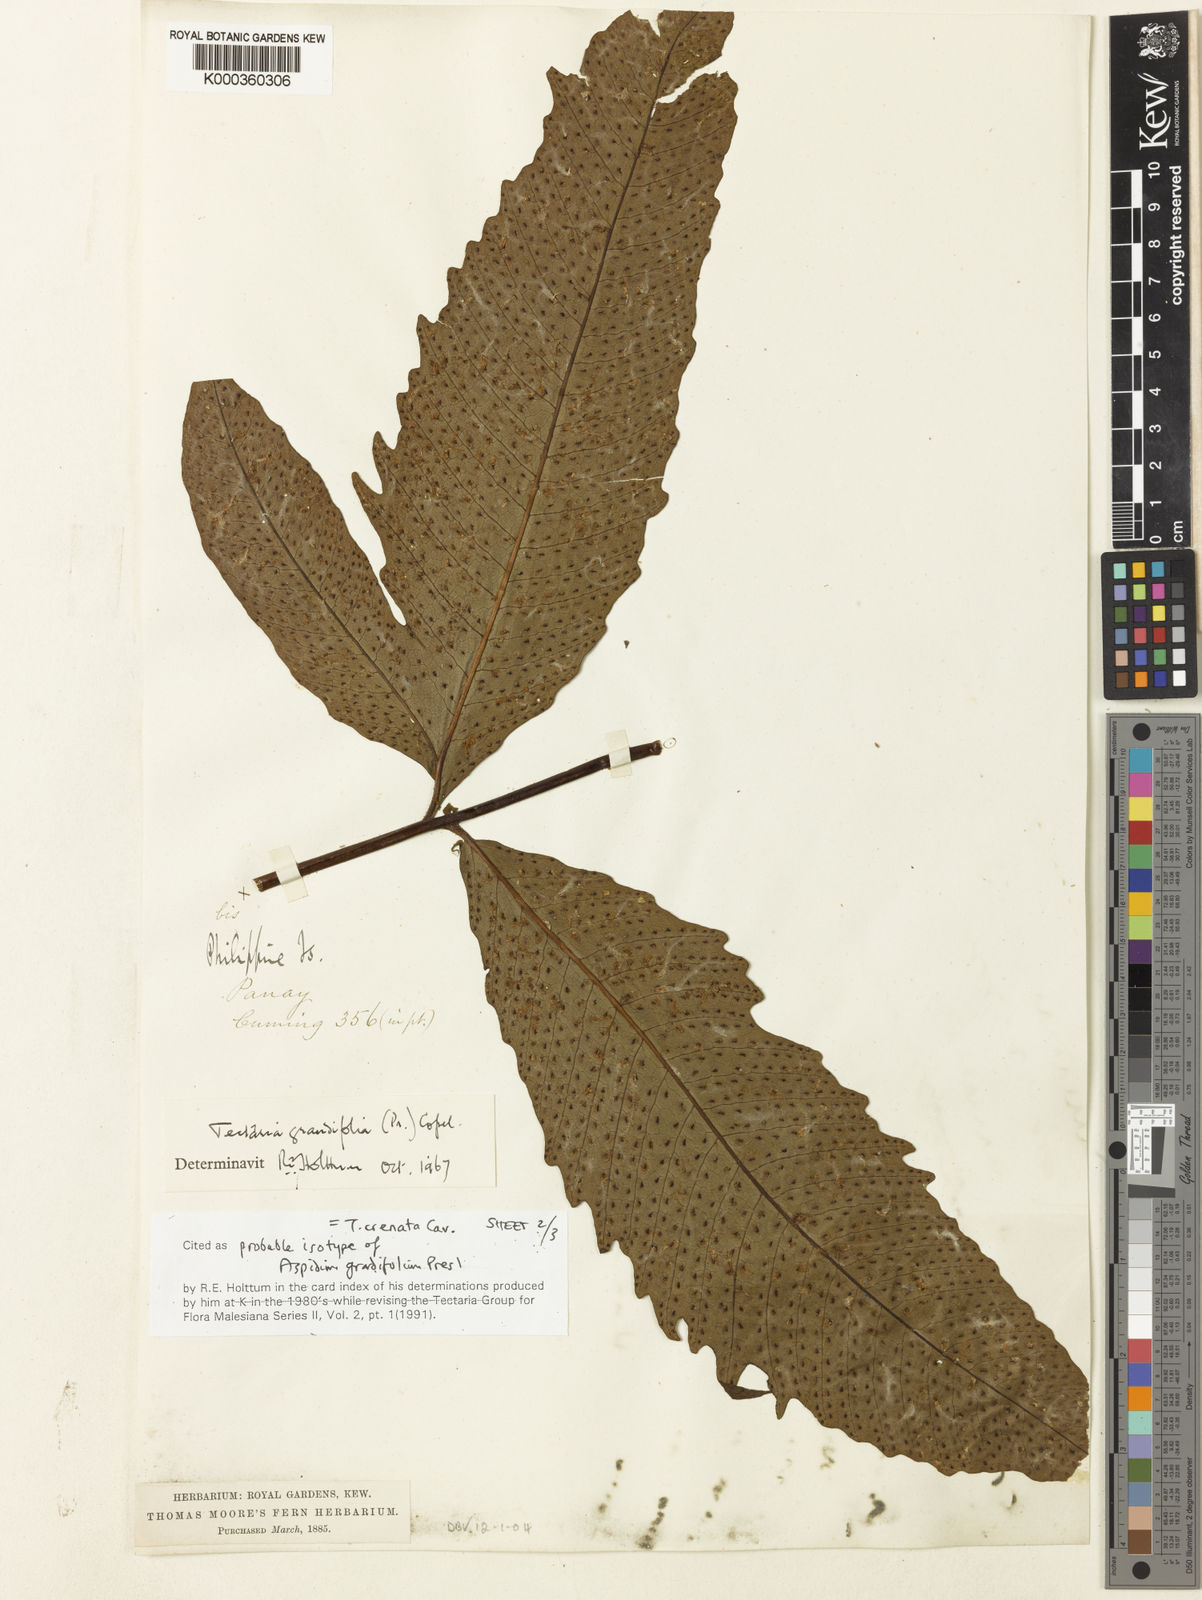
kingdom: Plantae
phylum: Tracheophyta
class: Polypodiopsida
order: Polypodiales
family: Tectariaceae
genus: Tectaria
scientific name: Tectaria crenata
